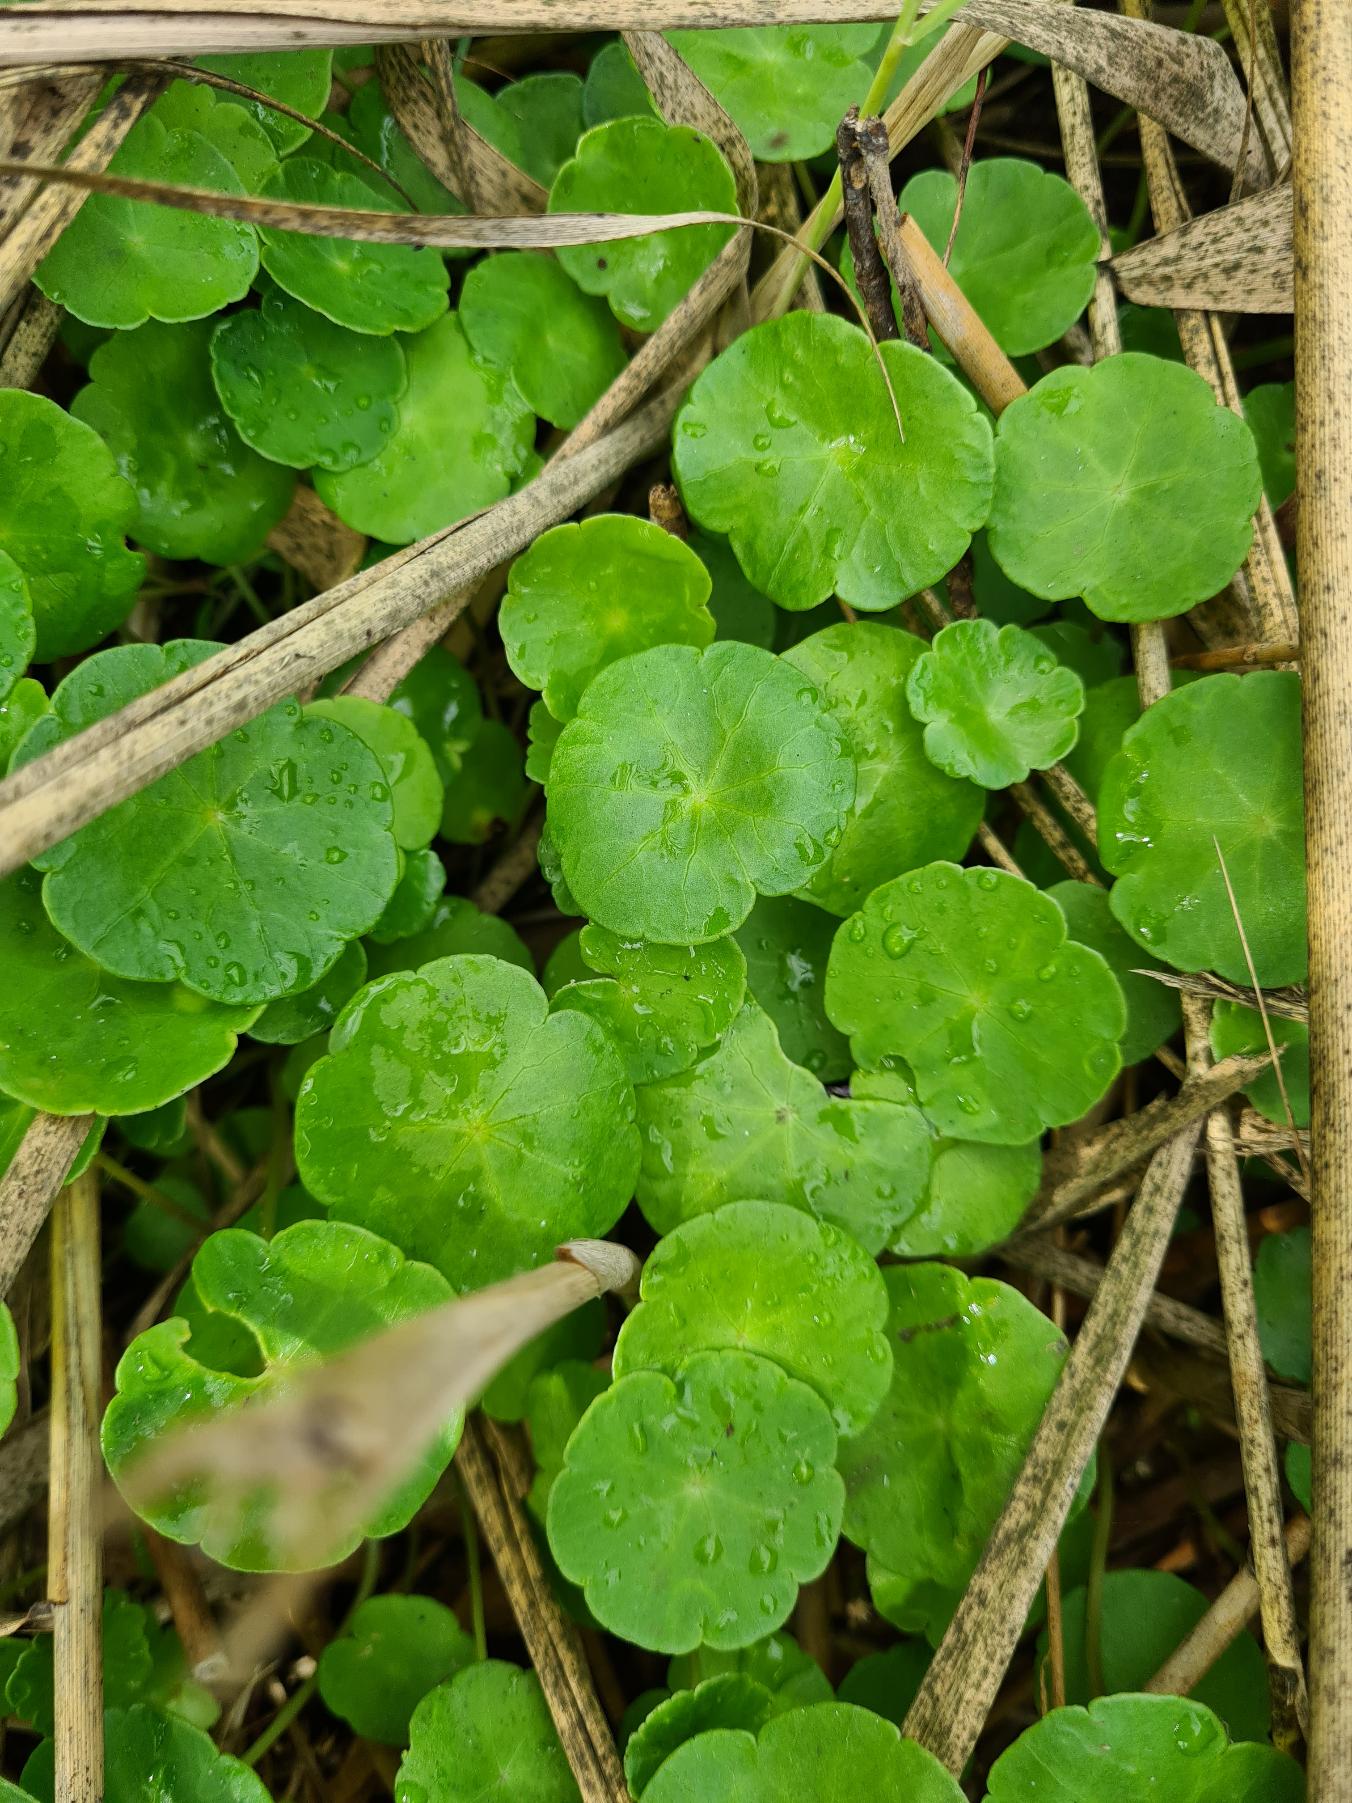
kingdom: Plantae
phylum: Tracheophyta
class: Magnoliopsida
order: Apiales
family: Araliaceae
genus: Hydrocotyle
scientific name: Hydrocotyle vulgaris
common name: Vandnavle
